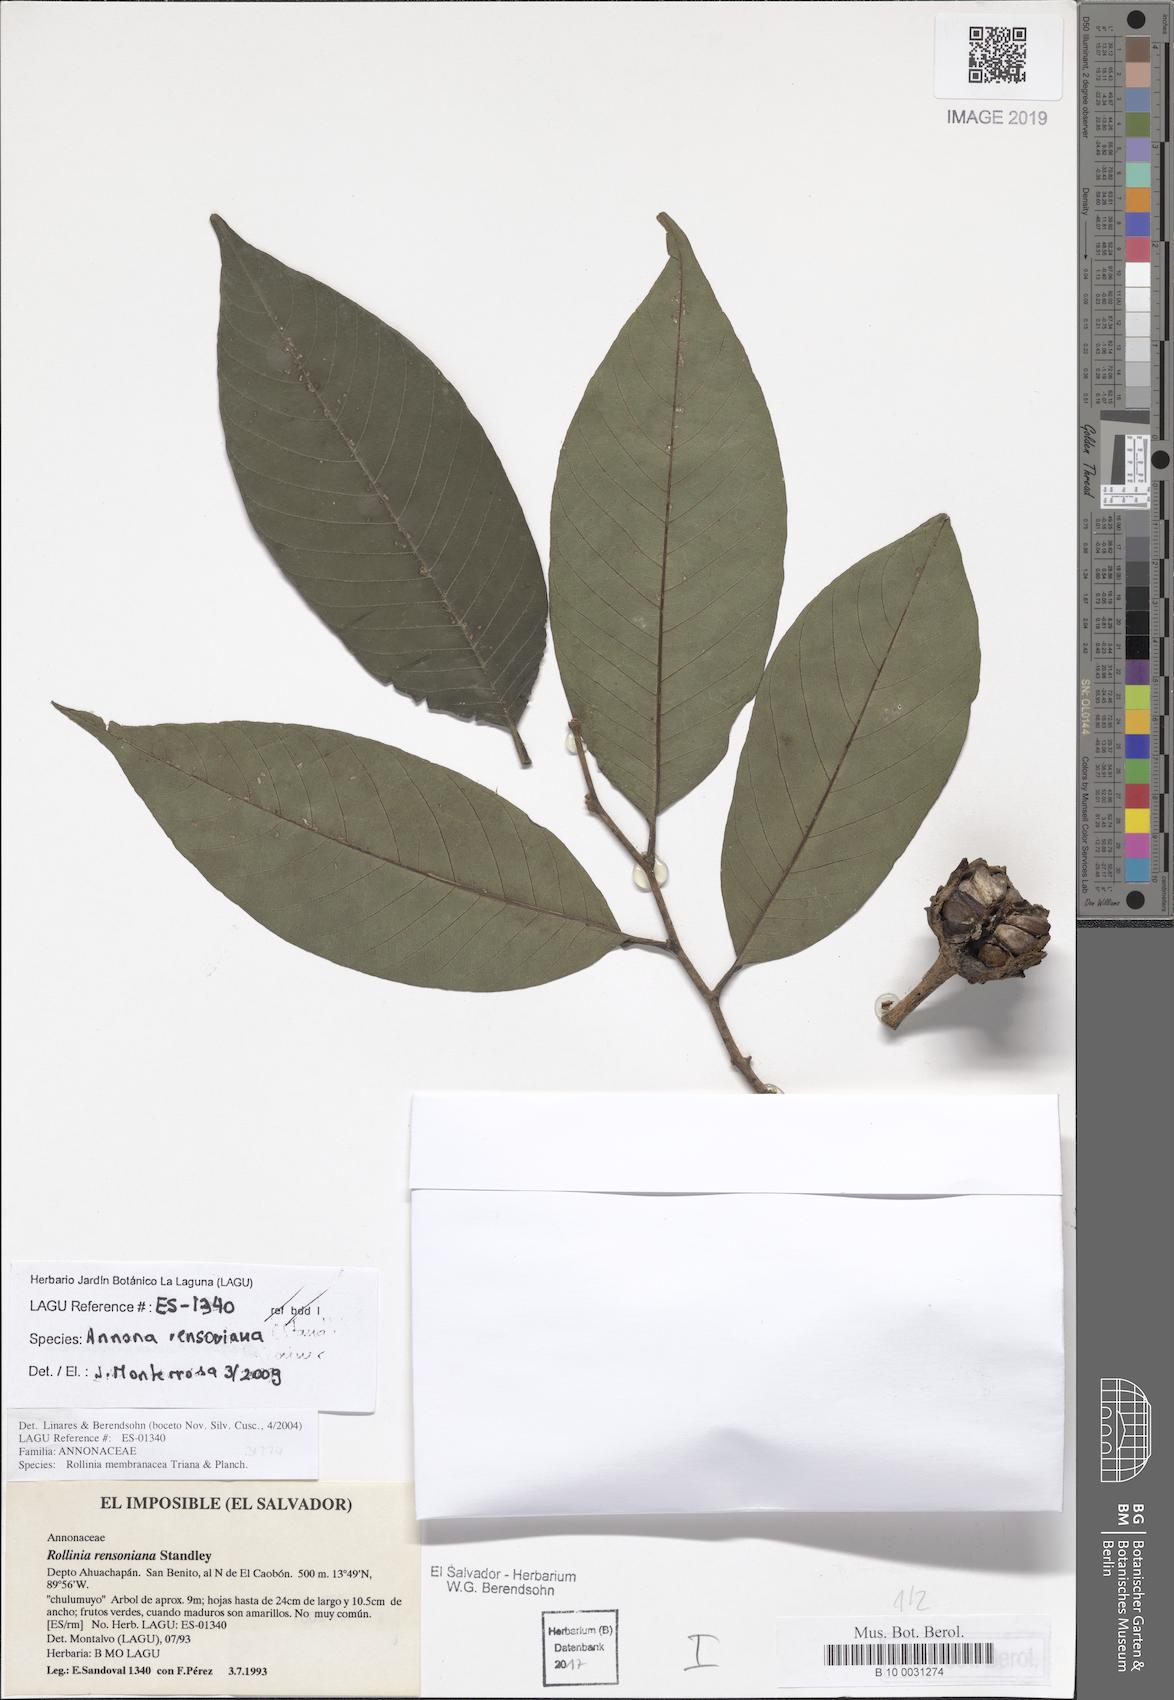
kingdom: Plantae
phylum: Tracheophyta
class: Magnoliopsida
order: Magnoliales
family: Annonaceae
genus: Annona
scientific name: Annona rensoniana
